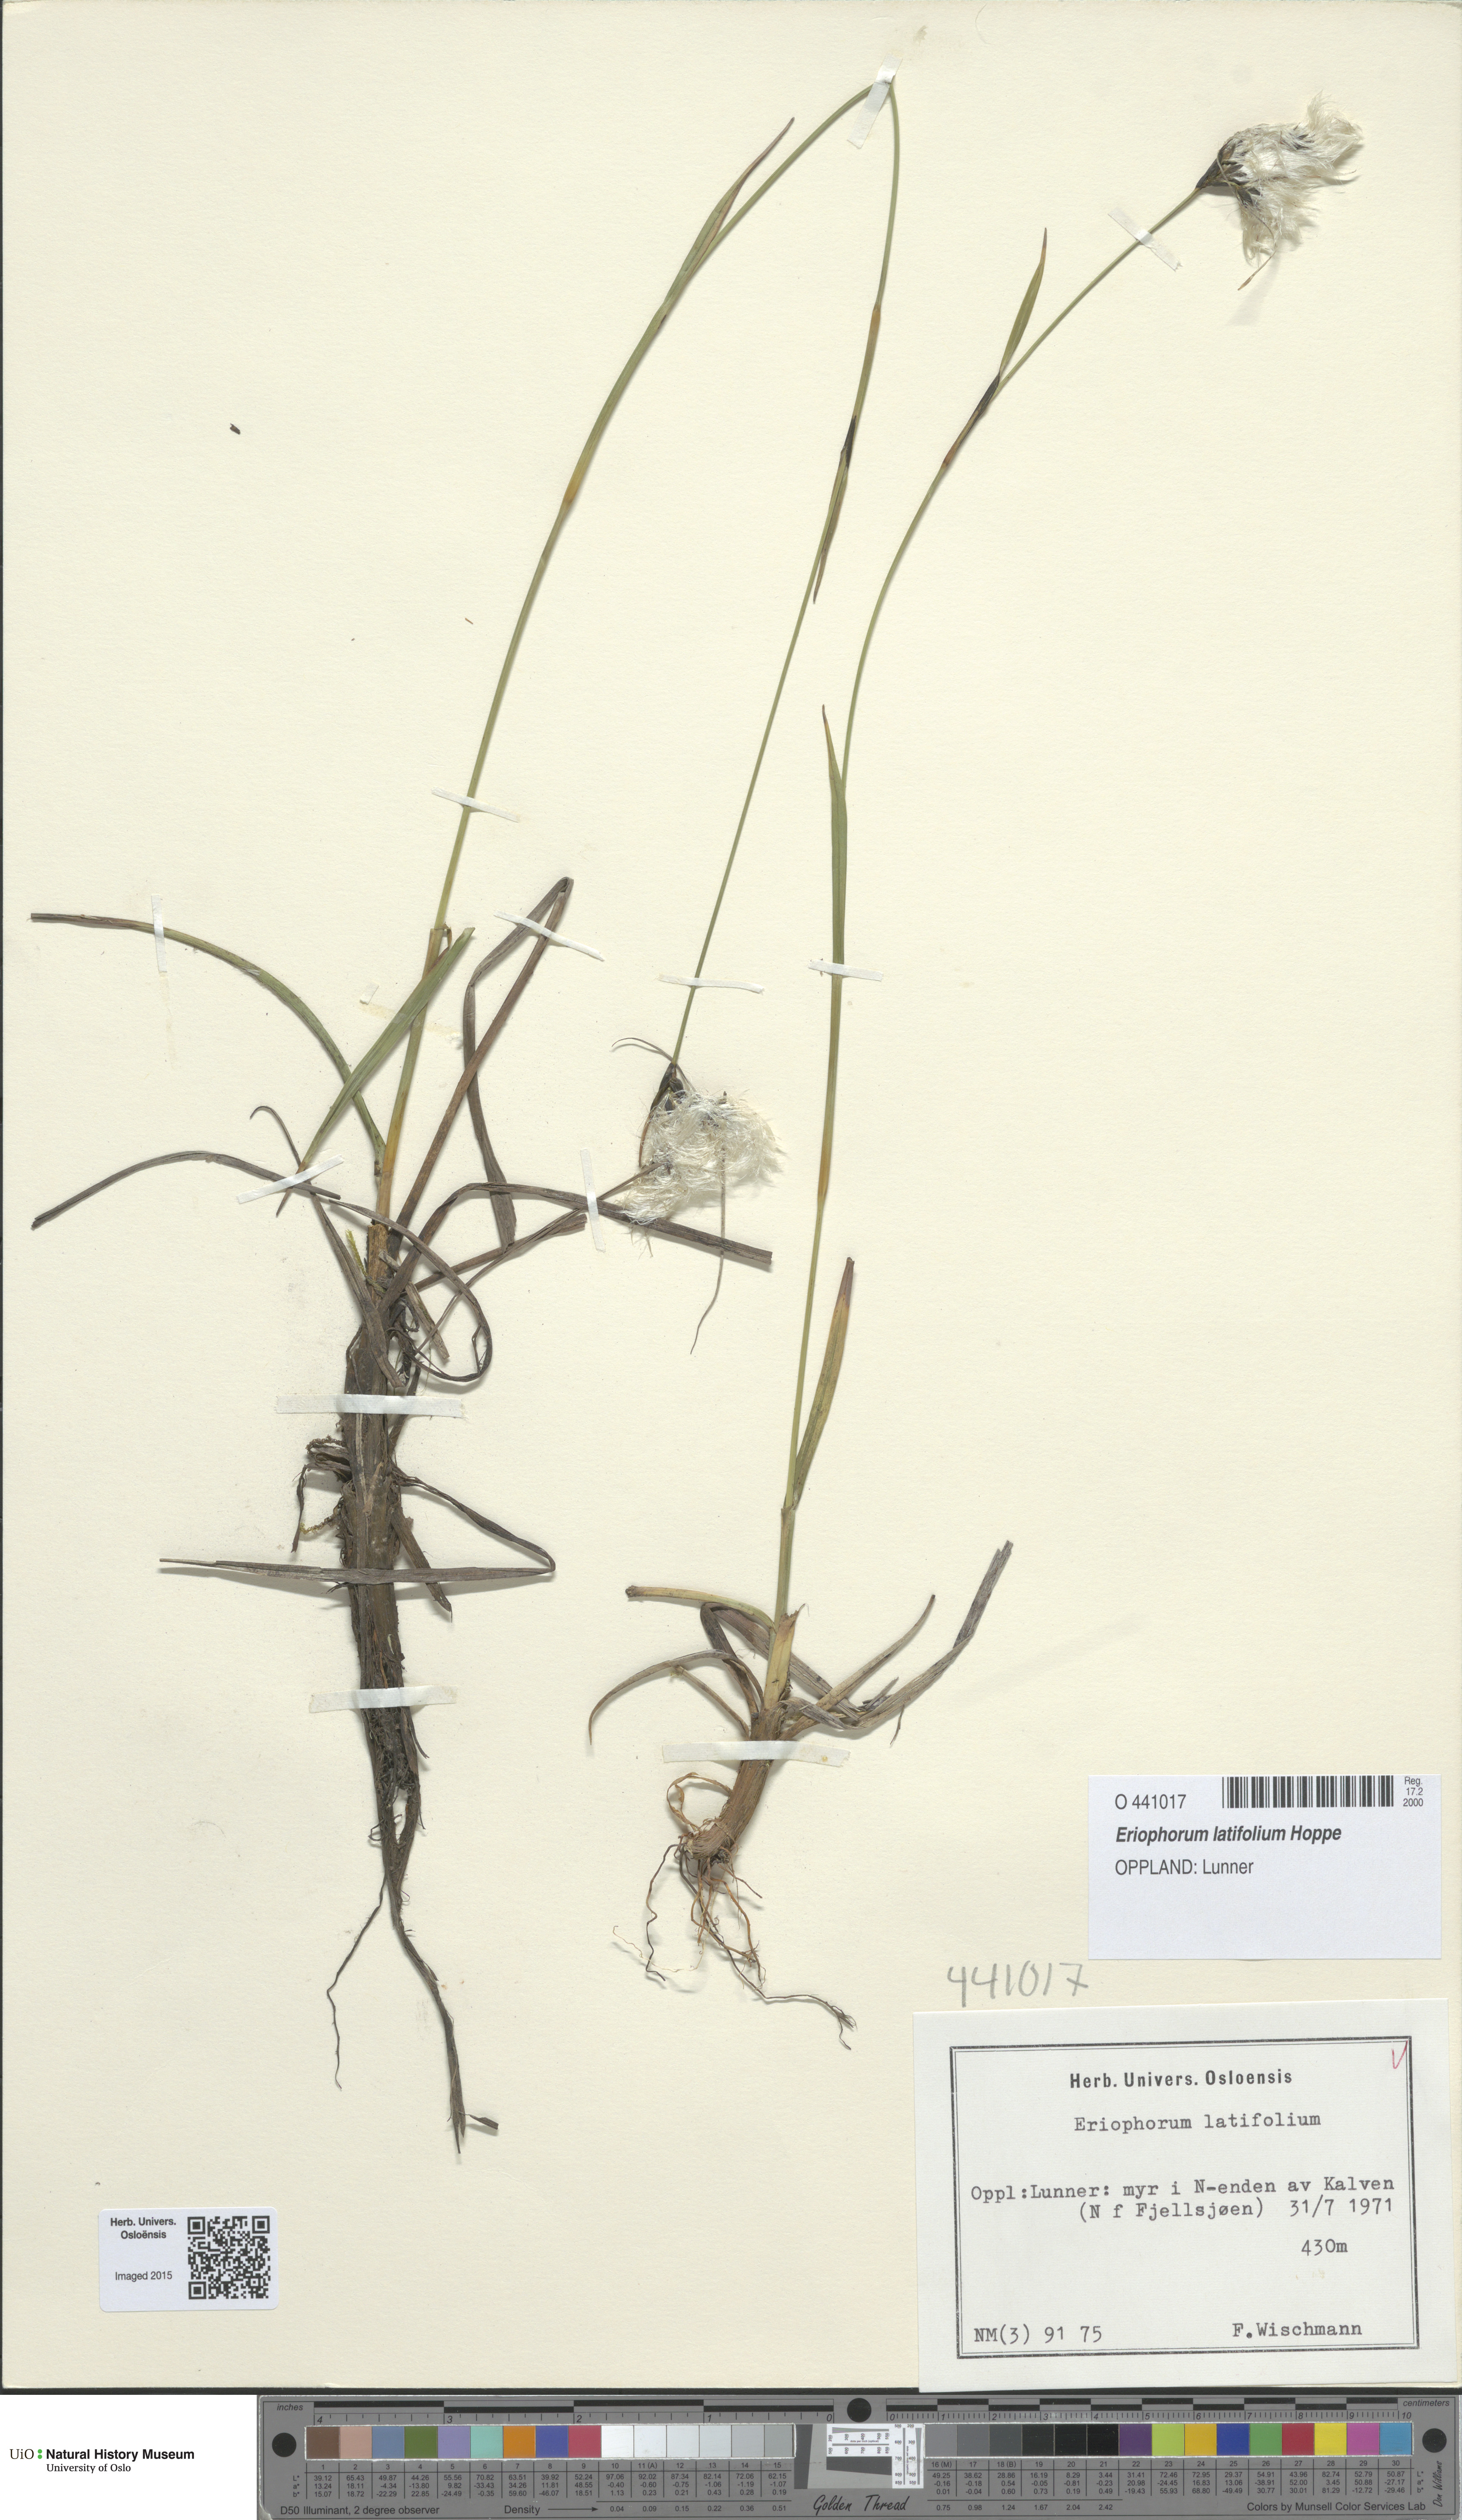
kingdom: Plantae
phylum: Tracheophyta
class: Liliopsida
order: Poales
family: Cyperaceae
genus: Eriophorum
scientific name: Eriophorum latifolium
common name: Broad-leaved cottongrass
